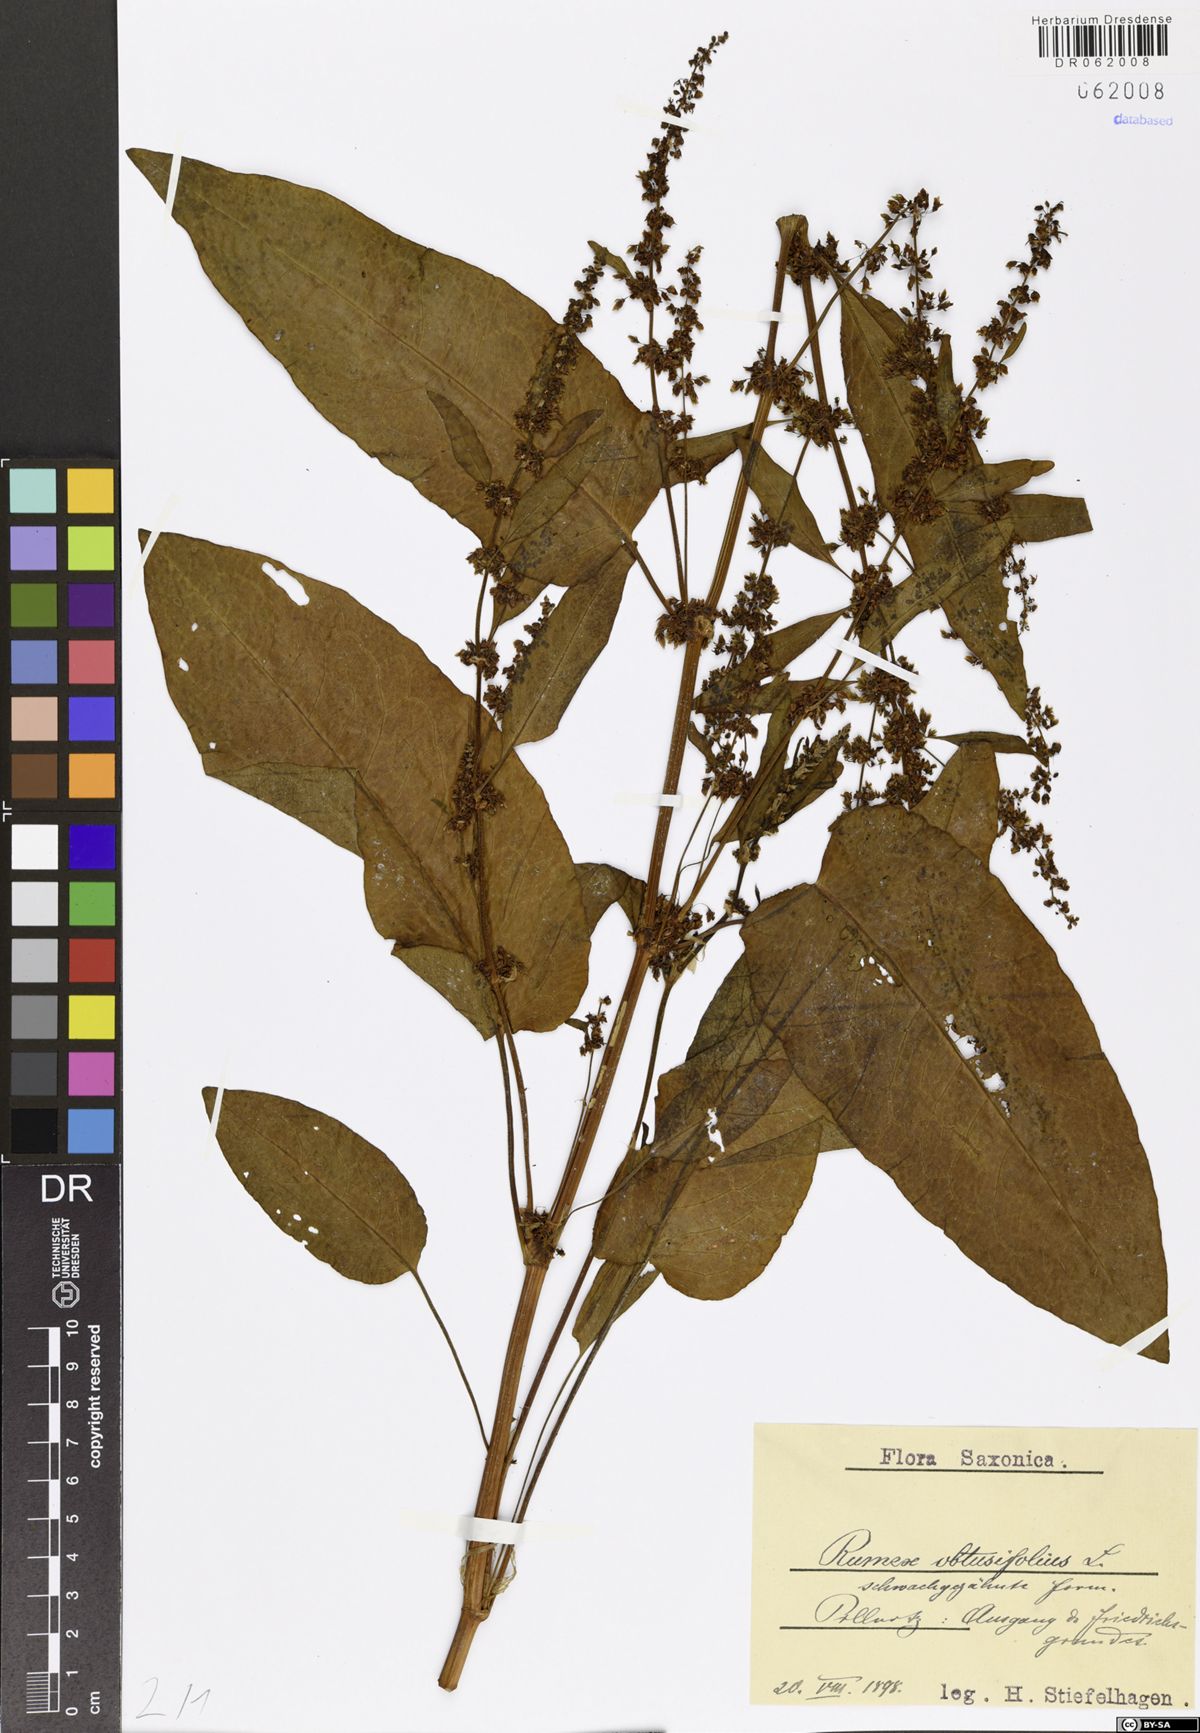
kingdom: Plantae
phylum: Tracheophyta
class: Magnoliopsida
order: Caryophyllales
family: Polygonaceae
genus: Rumex
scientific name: Rumex obtusifolius
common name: Bitter dock
